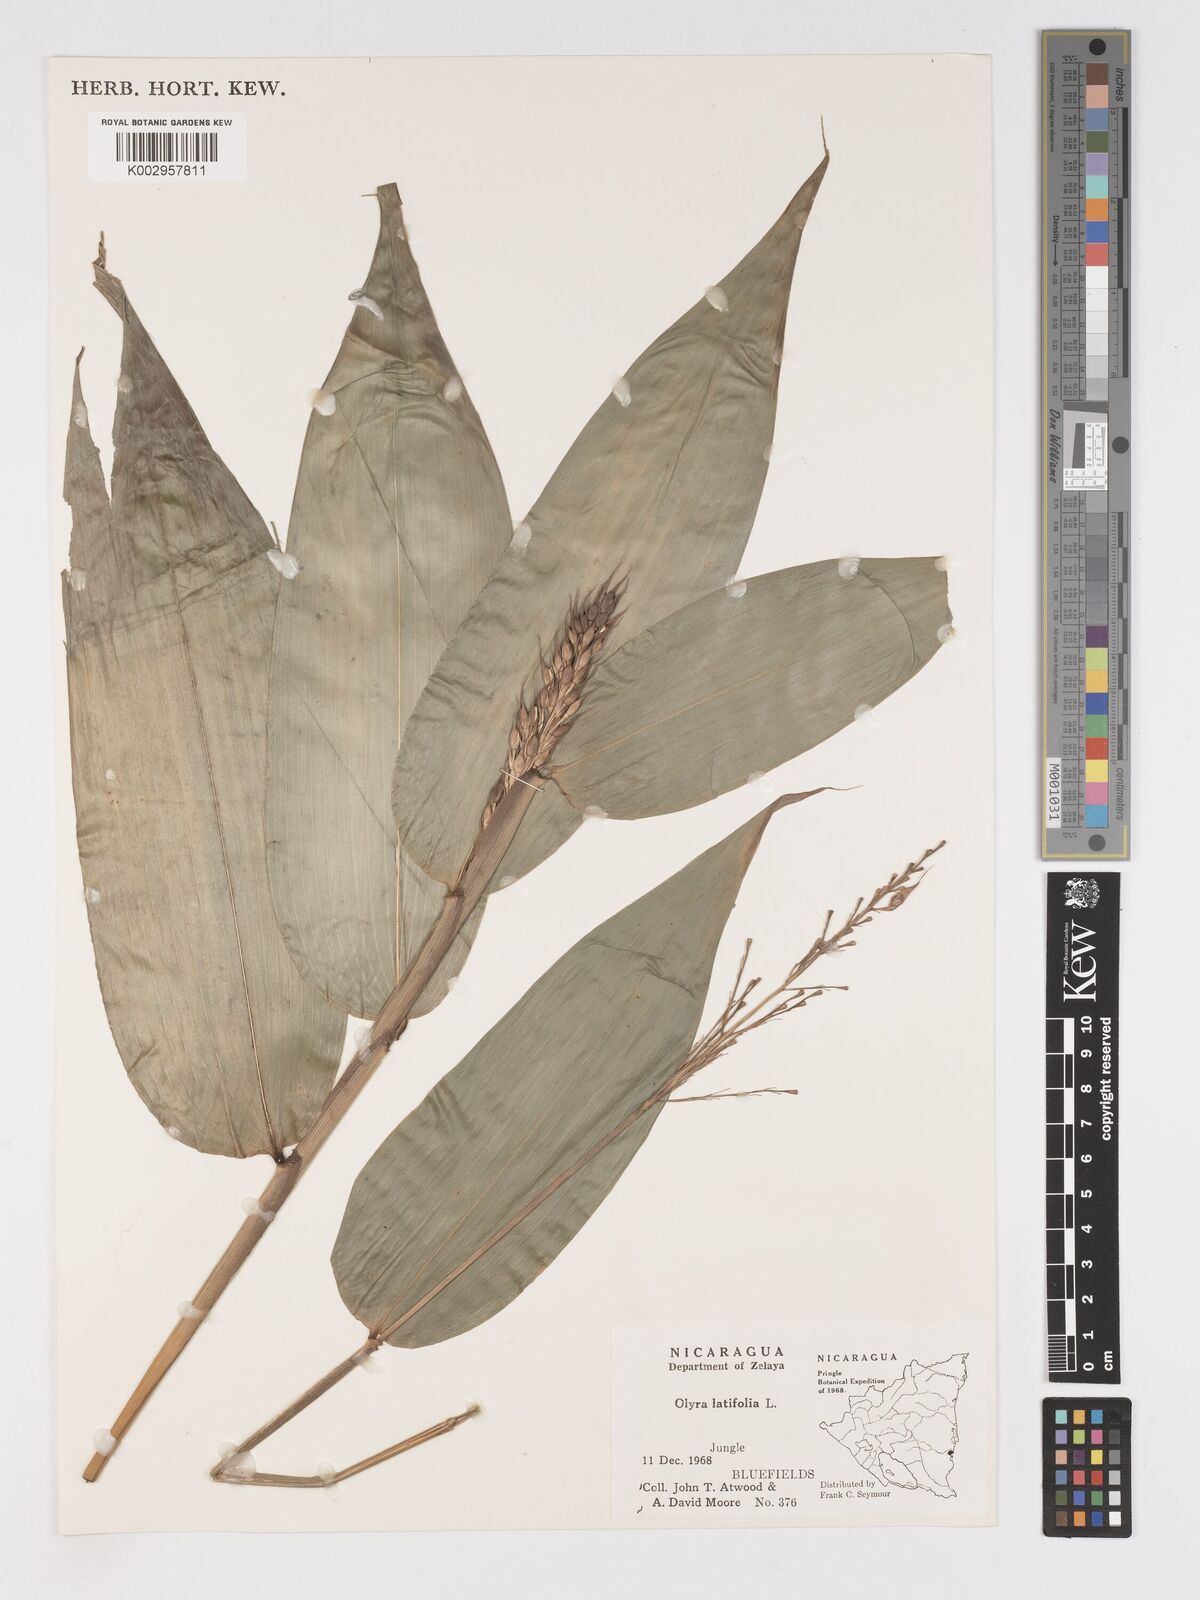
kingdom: Plantae
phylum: Tracheophyta
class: Liliopsida
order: Poales
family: Poaceae
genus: Olyra
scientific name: Olyra latifolia
